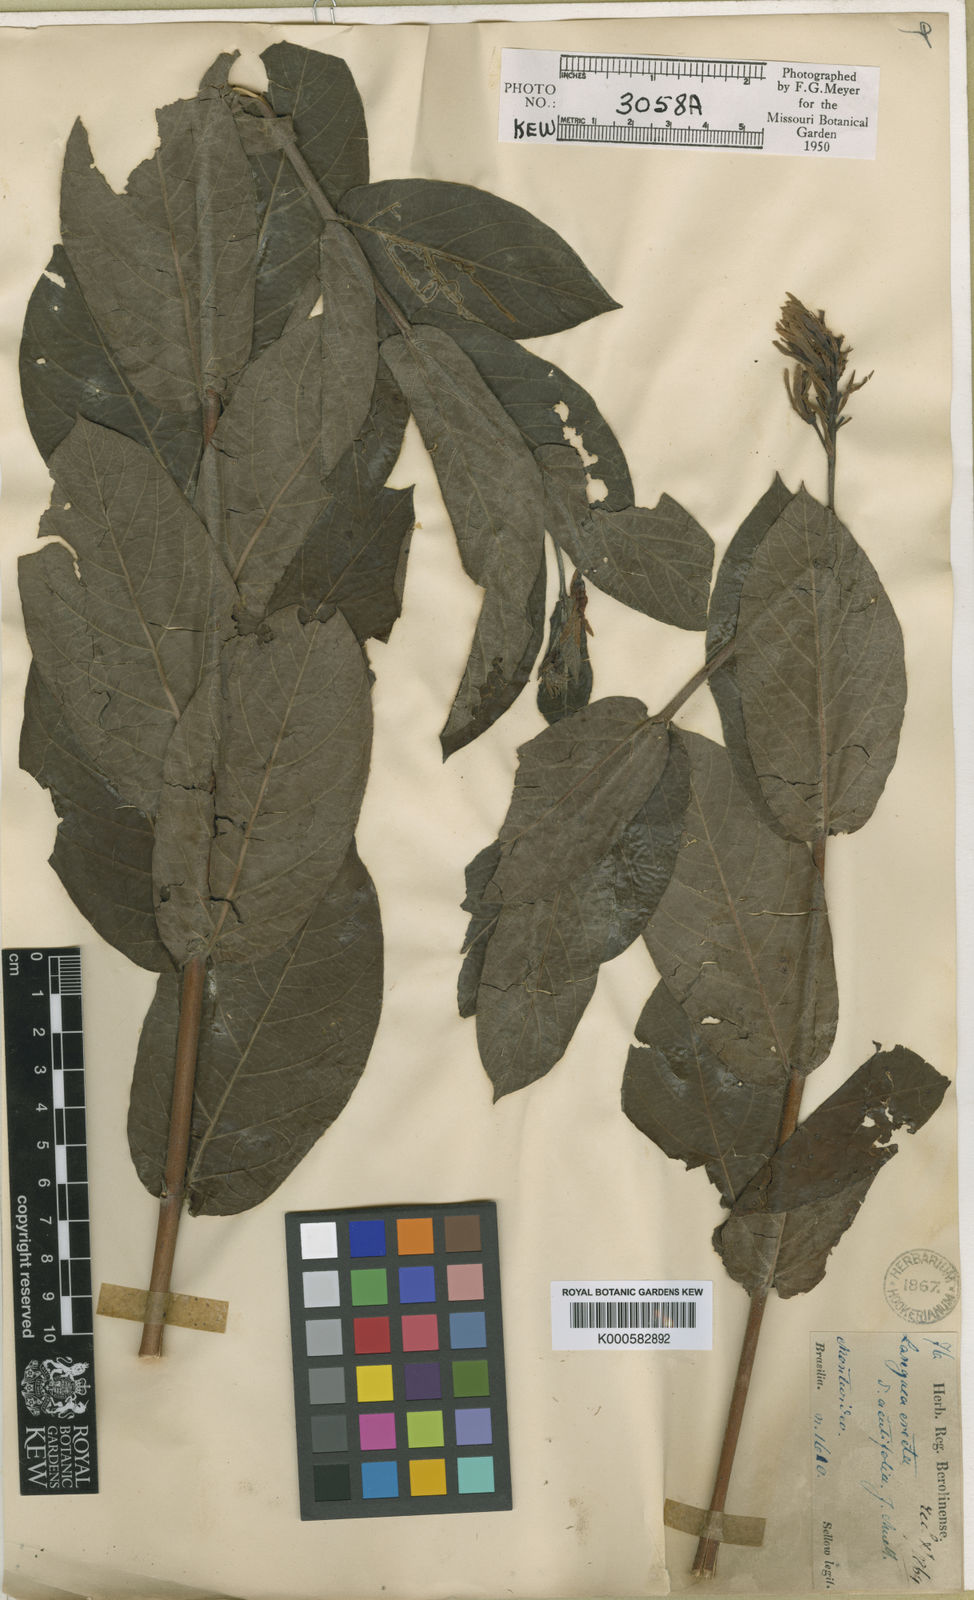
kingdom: Plantae
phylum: Tracheophyta
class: Magnoliopsida
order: Gentianales
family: Apocynaceae
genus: Mandevilla
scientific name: Mandevilla emarginata
